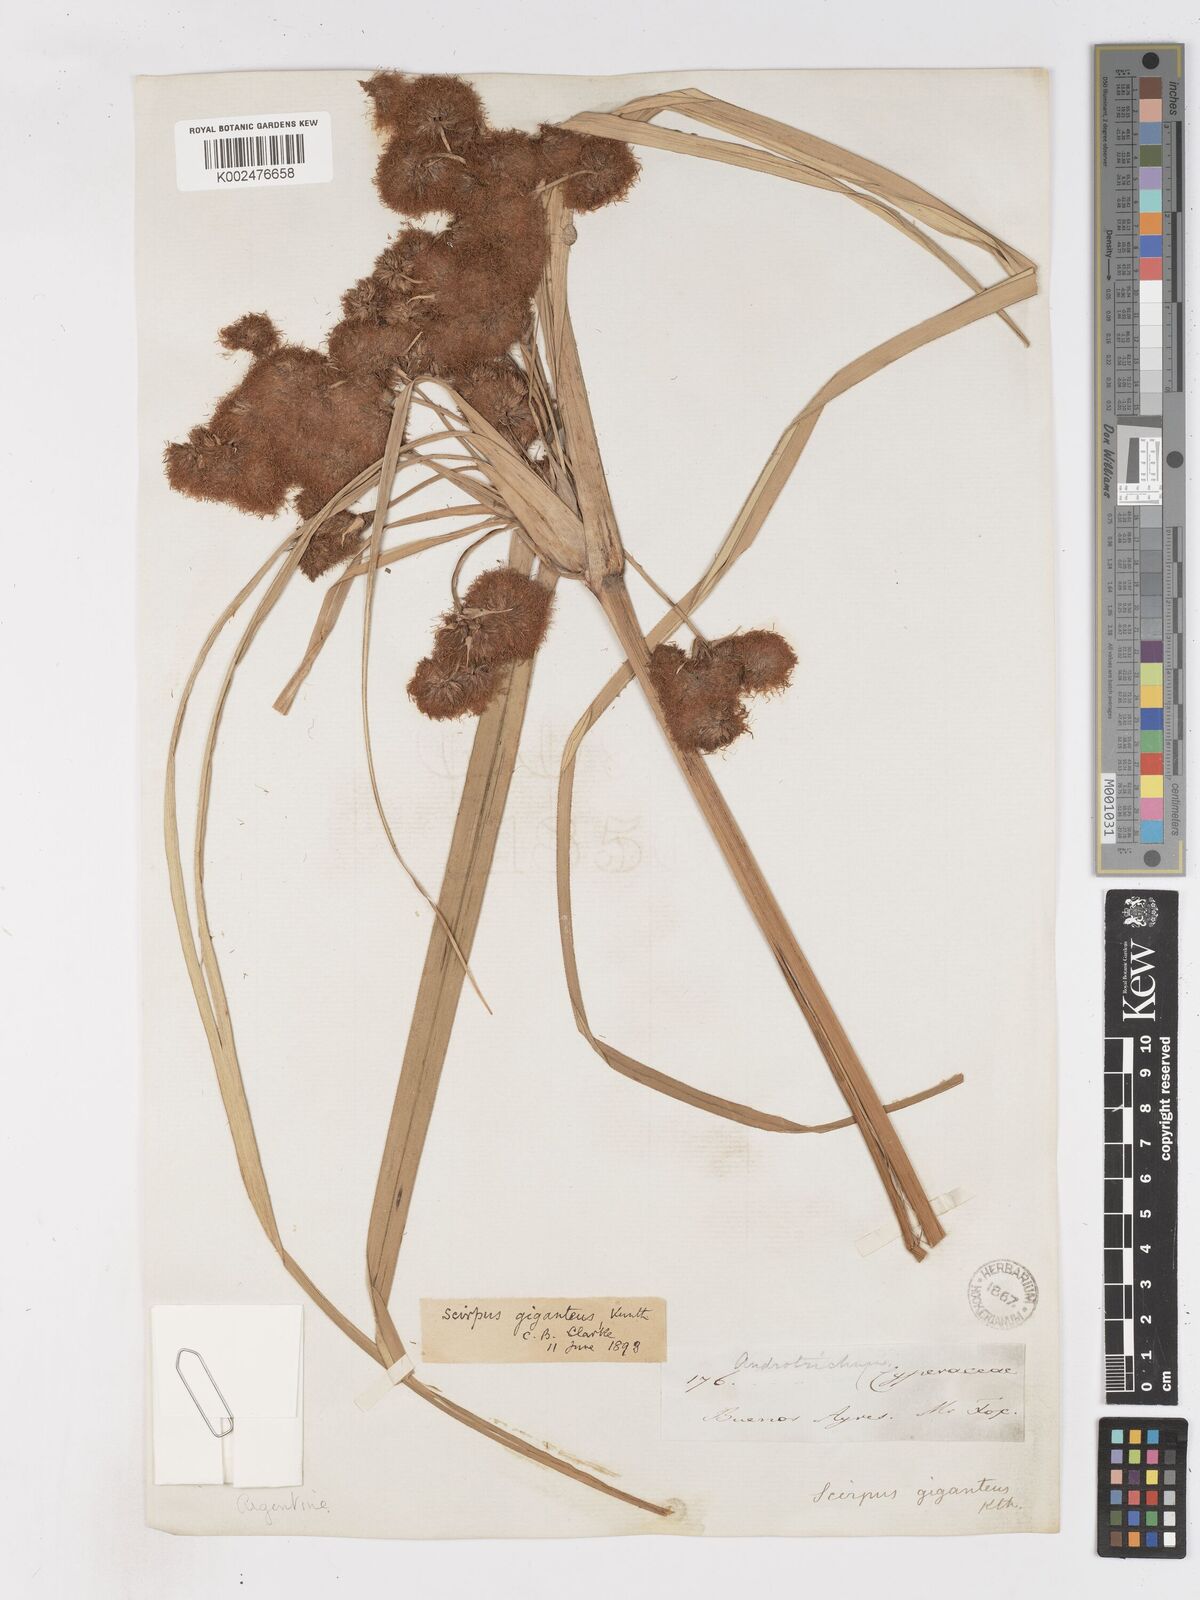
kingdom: Plantae
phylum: Tracheophyta
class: Liliopsida
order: Poales
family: Cyperaceae
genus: Cyperus
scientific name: Cyperus byssaceus
